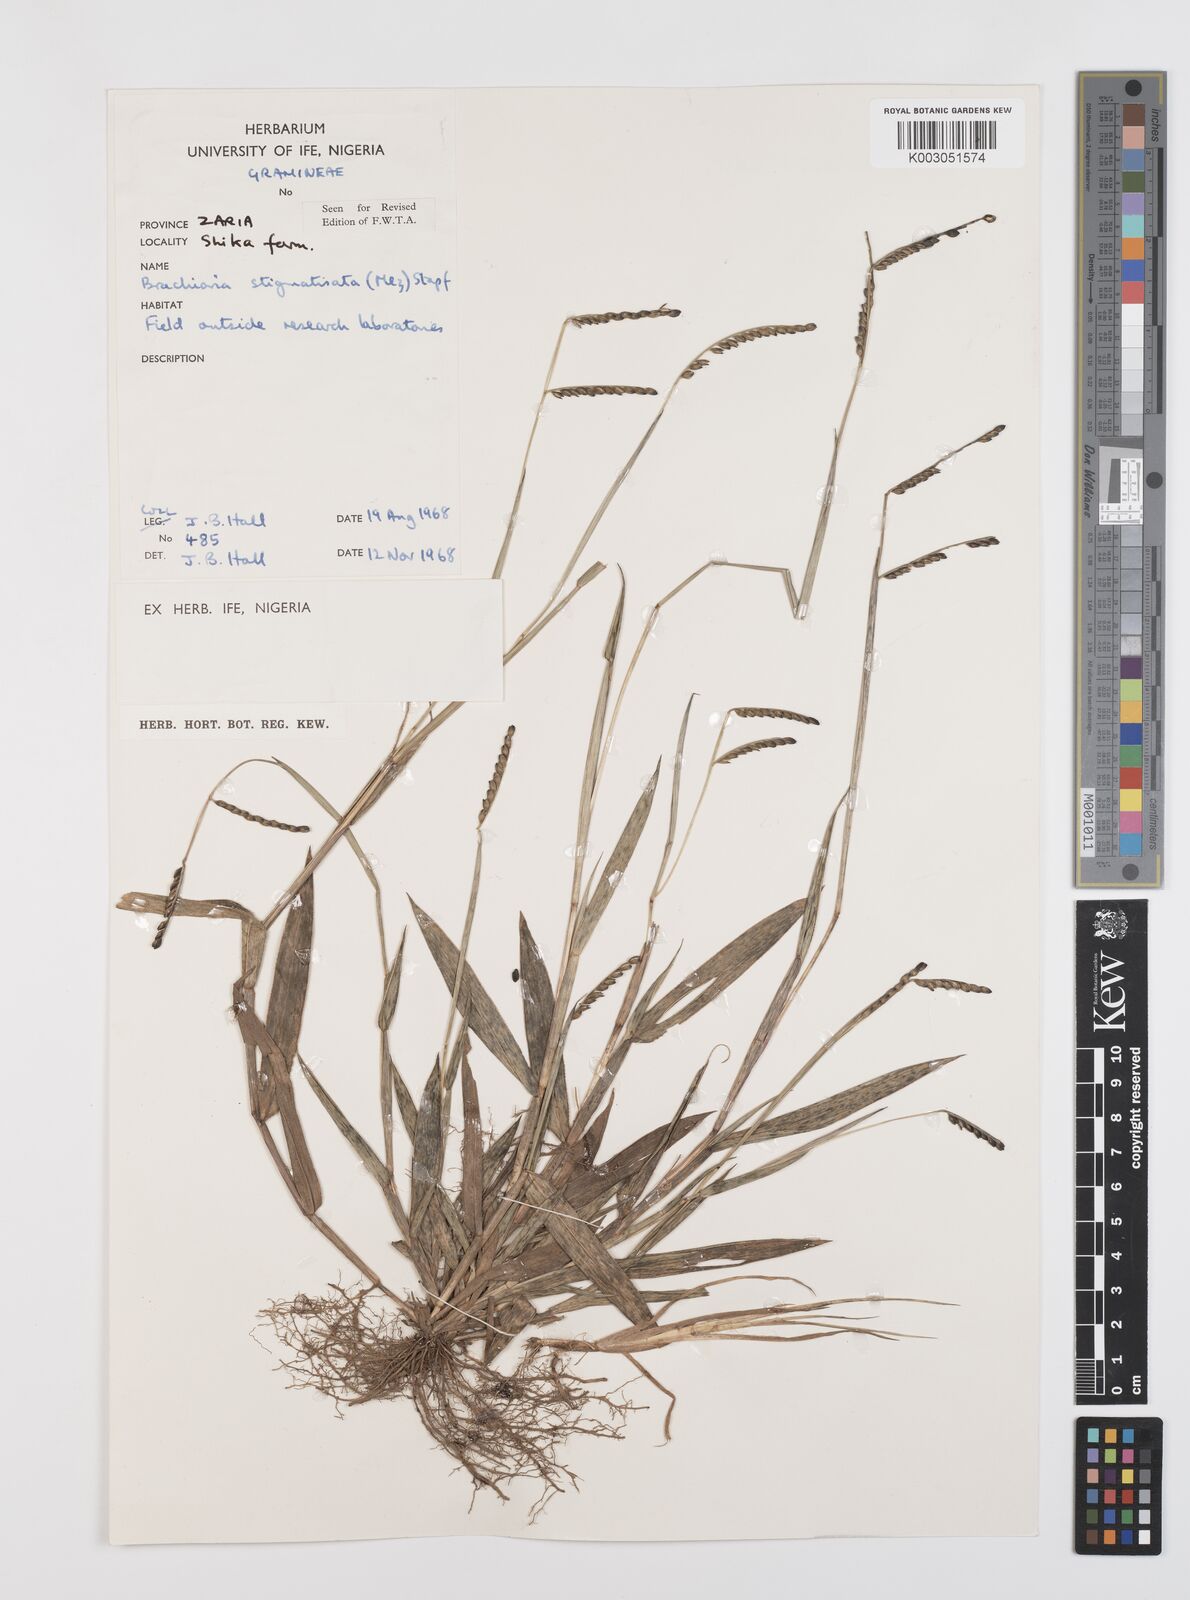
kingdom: Plantae
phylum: Tracheophyta
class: Liliopsida
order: Poales
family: Poaceae
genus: Urochloa
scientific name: Urochloa stigmatisata
